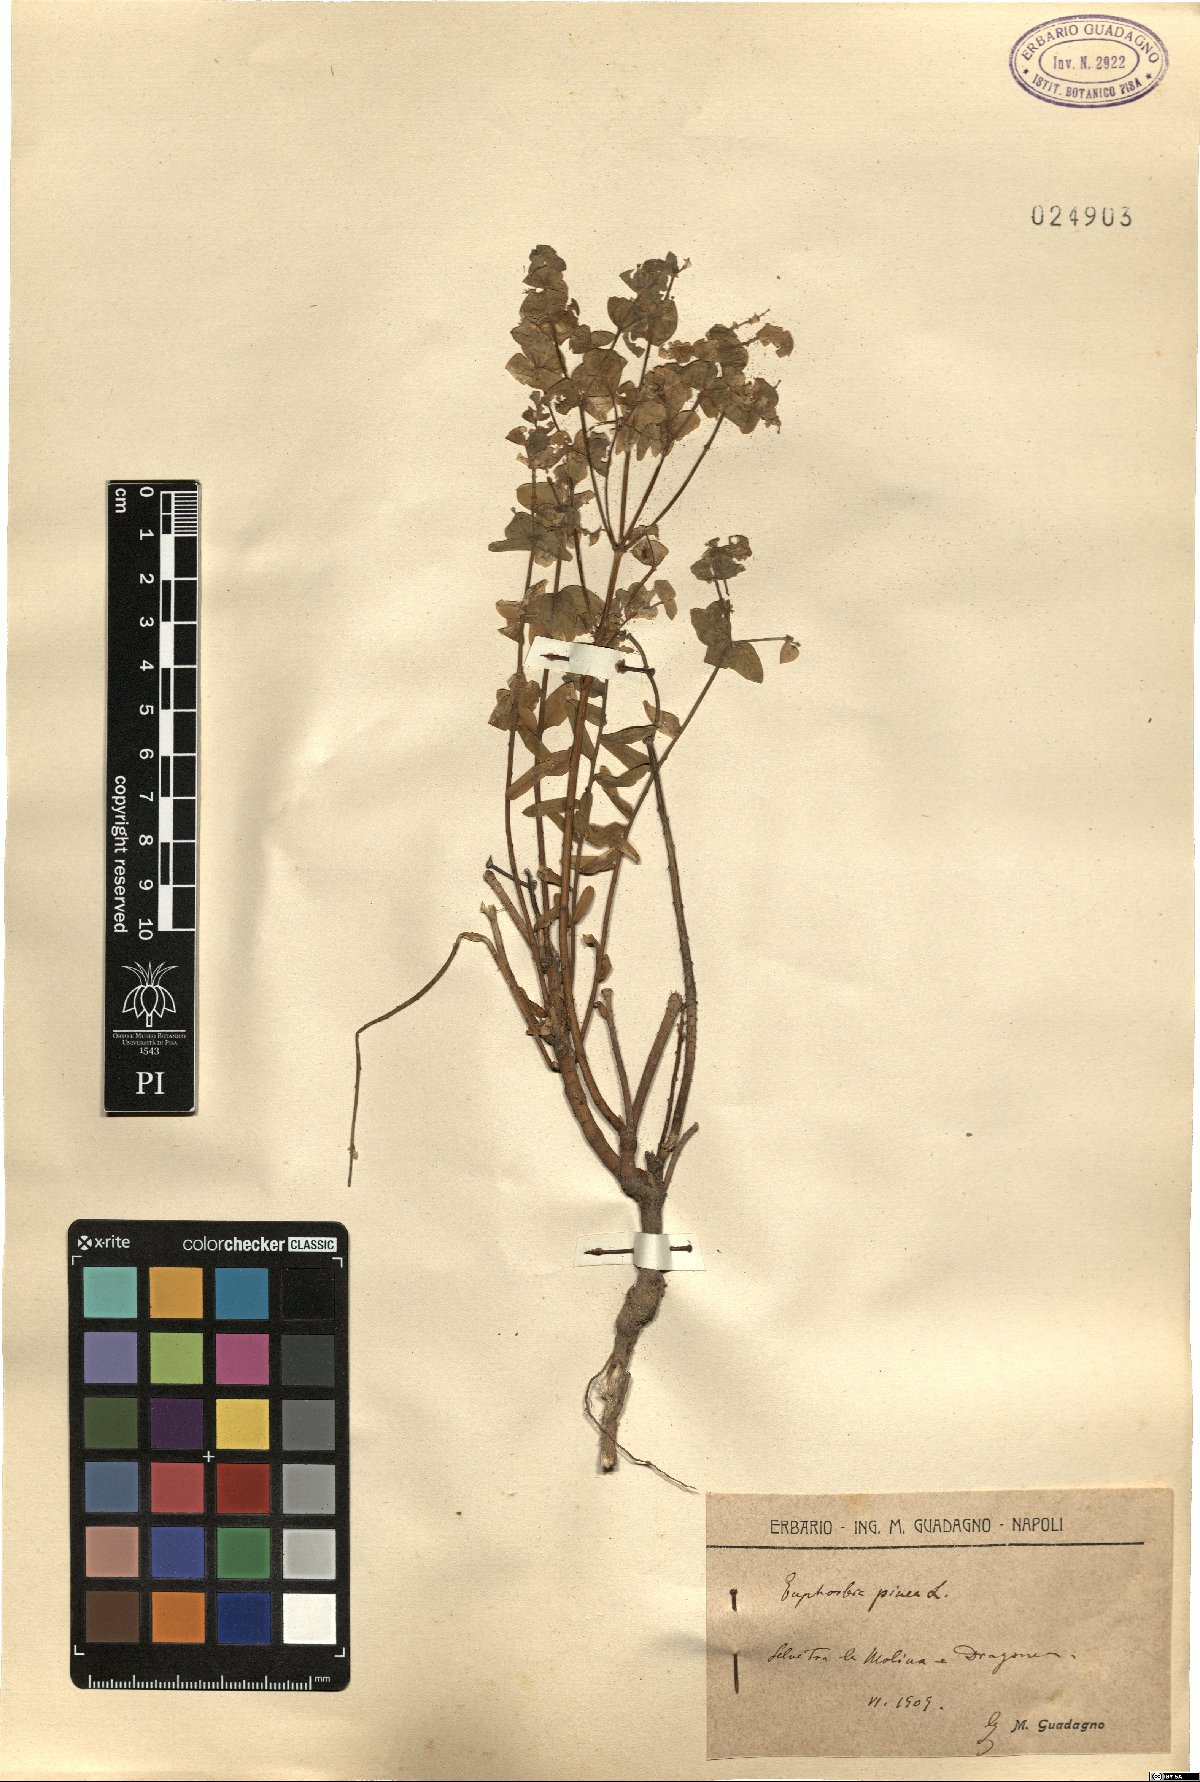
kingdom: Plantae
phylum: Tracheophyta
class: Magnoliopsida
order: Malpighiales
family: Euphorbiaceae
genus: Euphorbia
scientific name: Euphorbia segetalis
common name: Corn spurge
